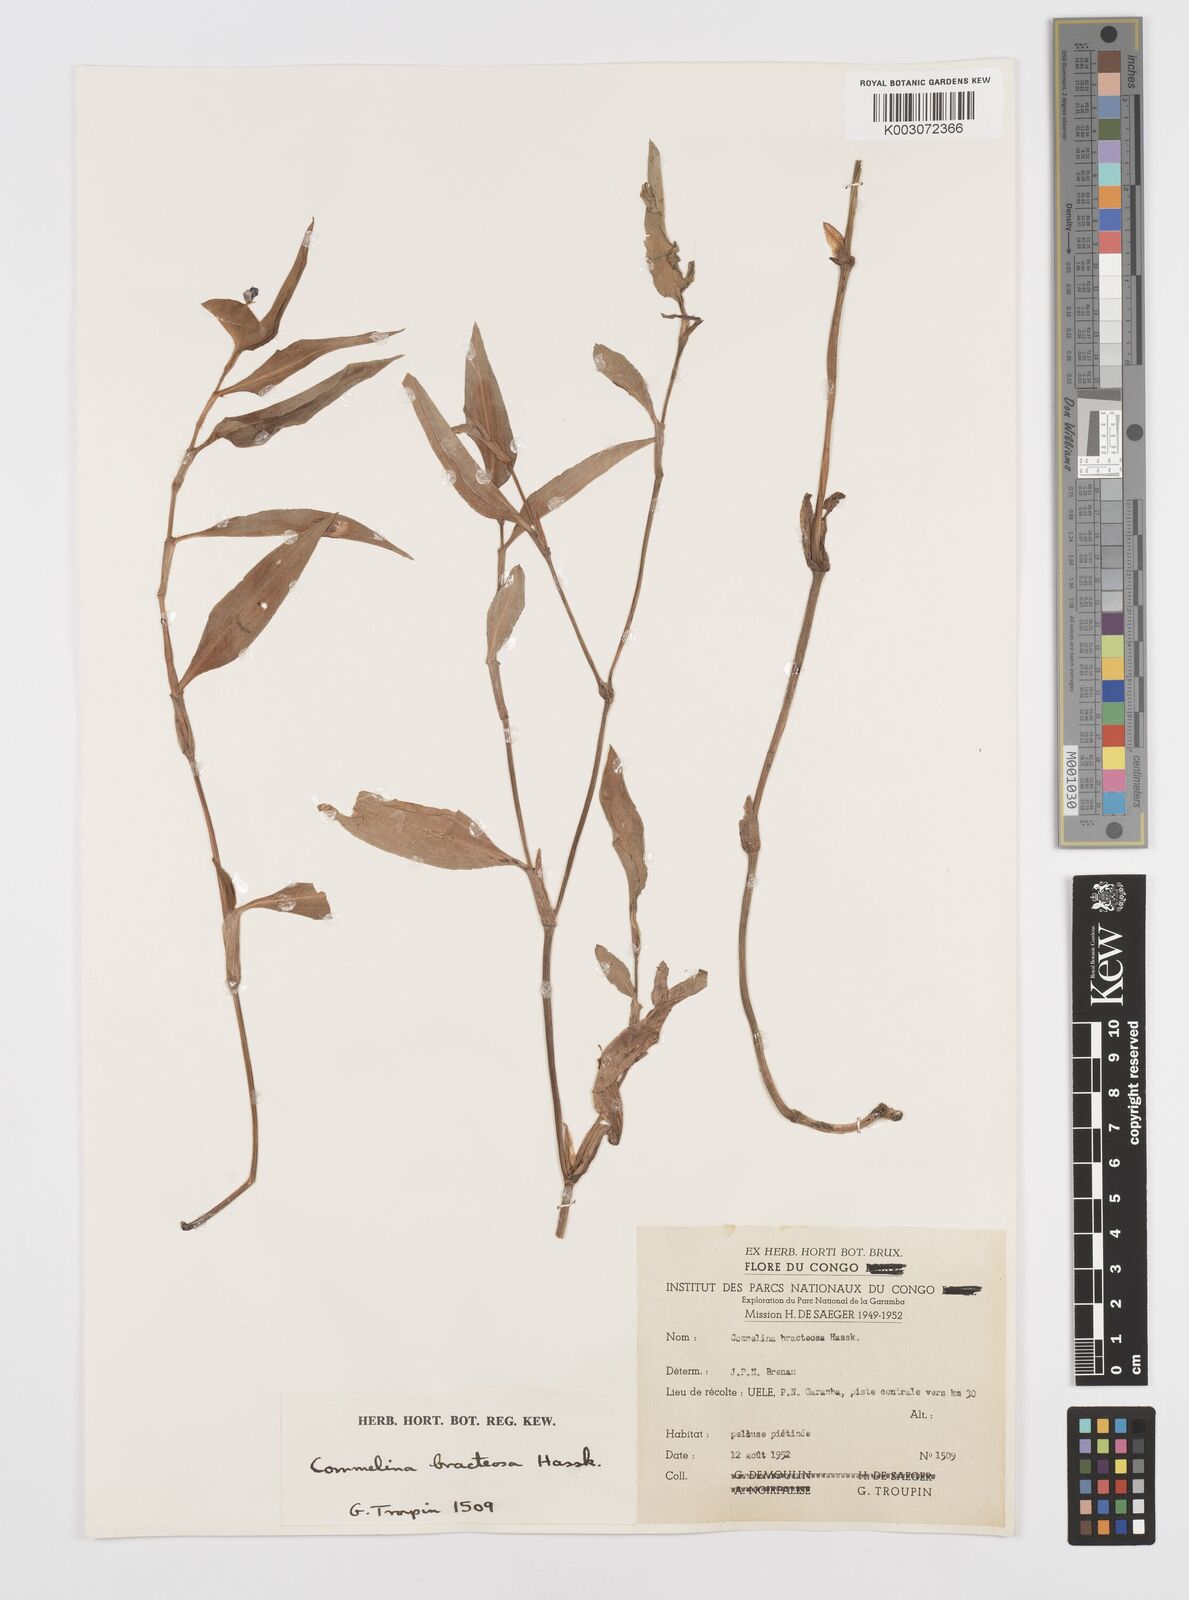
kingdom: Plantae
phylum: Tracheophyta
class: Liliopsida
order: Commelinales
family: Commelinaceae
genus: Commelina
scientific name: Commelina bracteosa
